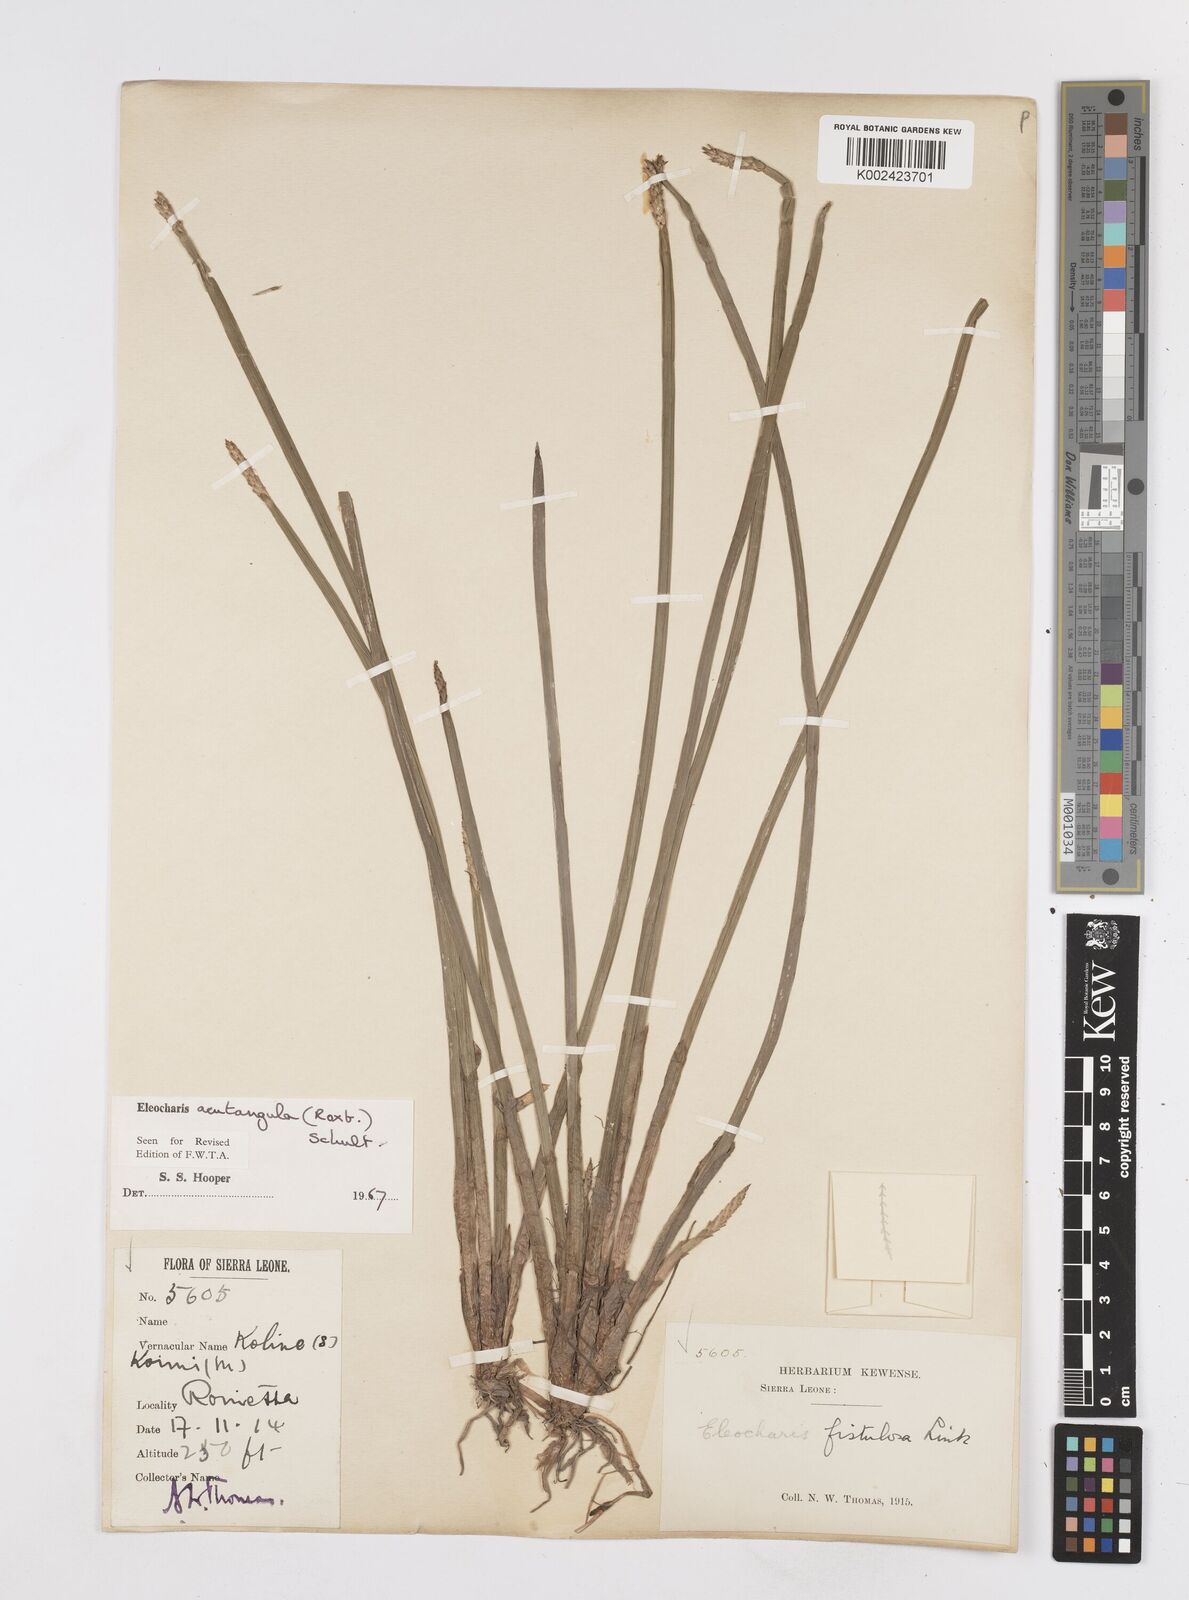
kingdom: Plantae
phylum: Tracheophyta
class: Liliopsida
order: Poales
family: Cyperaceae
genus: Eleocharis
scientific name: Eleocharis acutangula
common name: Acute spikerush
